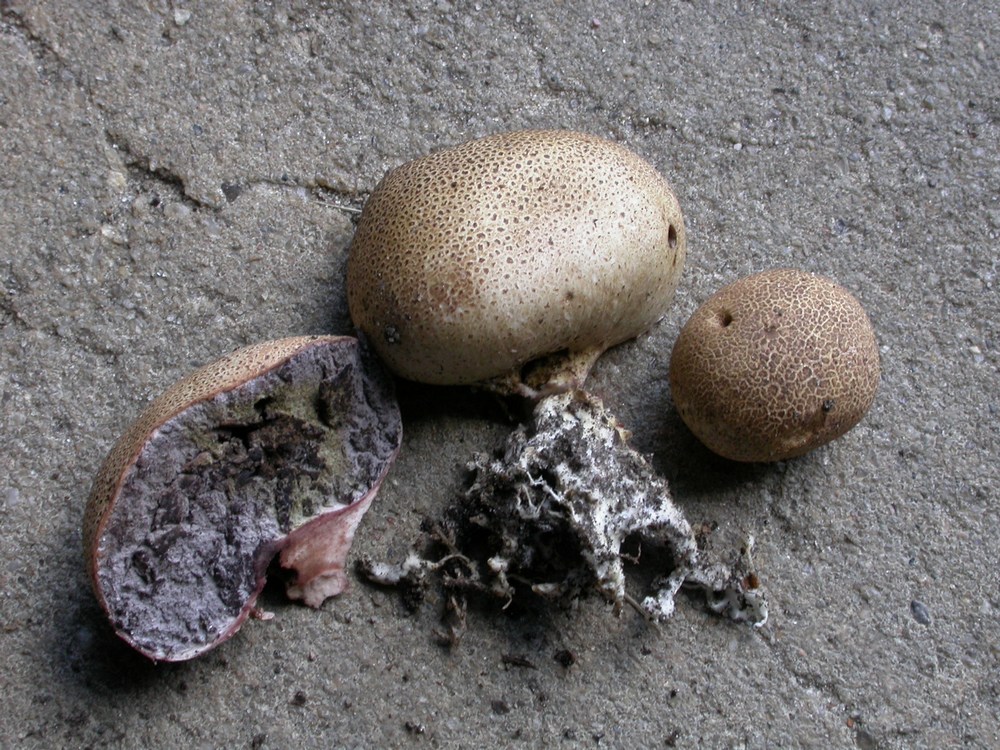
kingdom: Fungi
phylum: Basidiomycota
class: Agaricomycetes
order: Boletales
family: Sclerodermataceae
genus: Scleroderma
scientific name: Scleroderma areolatum
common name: plettet bruskbold
